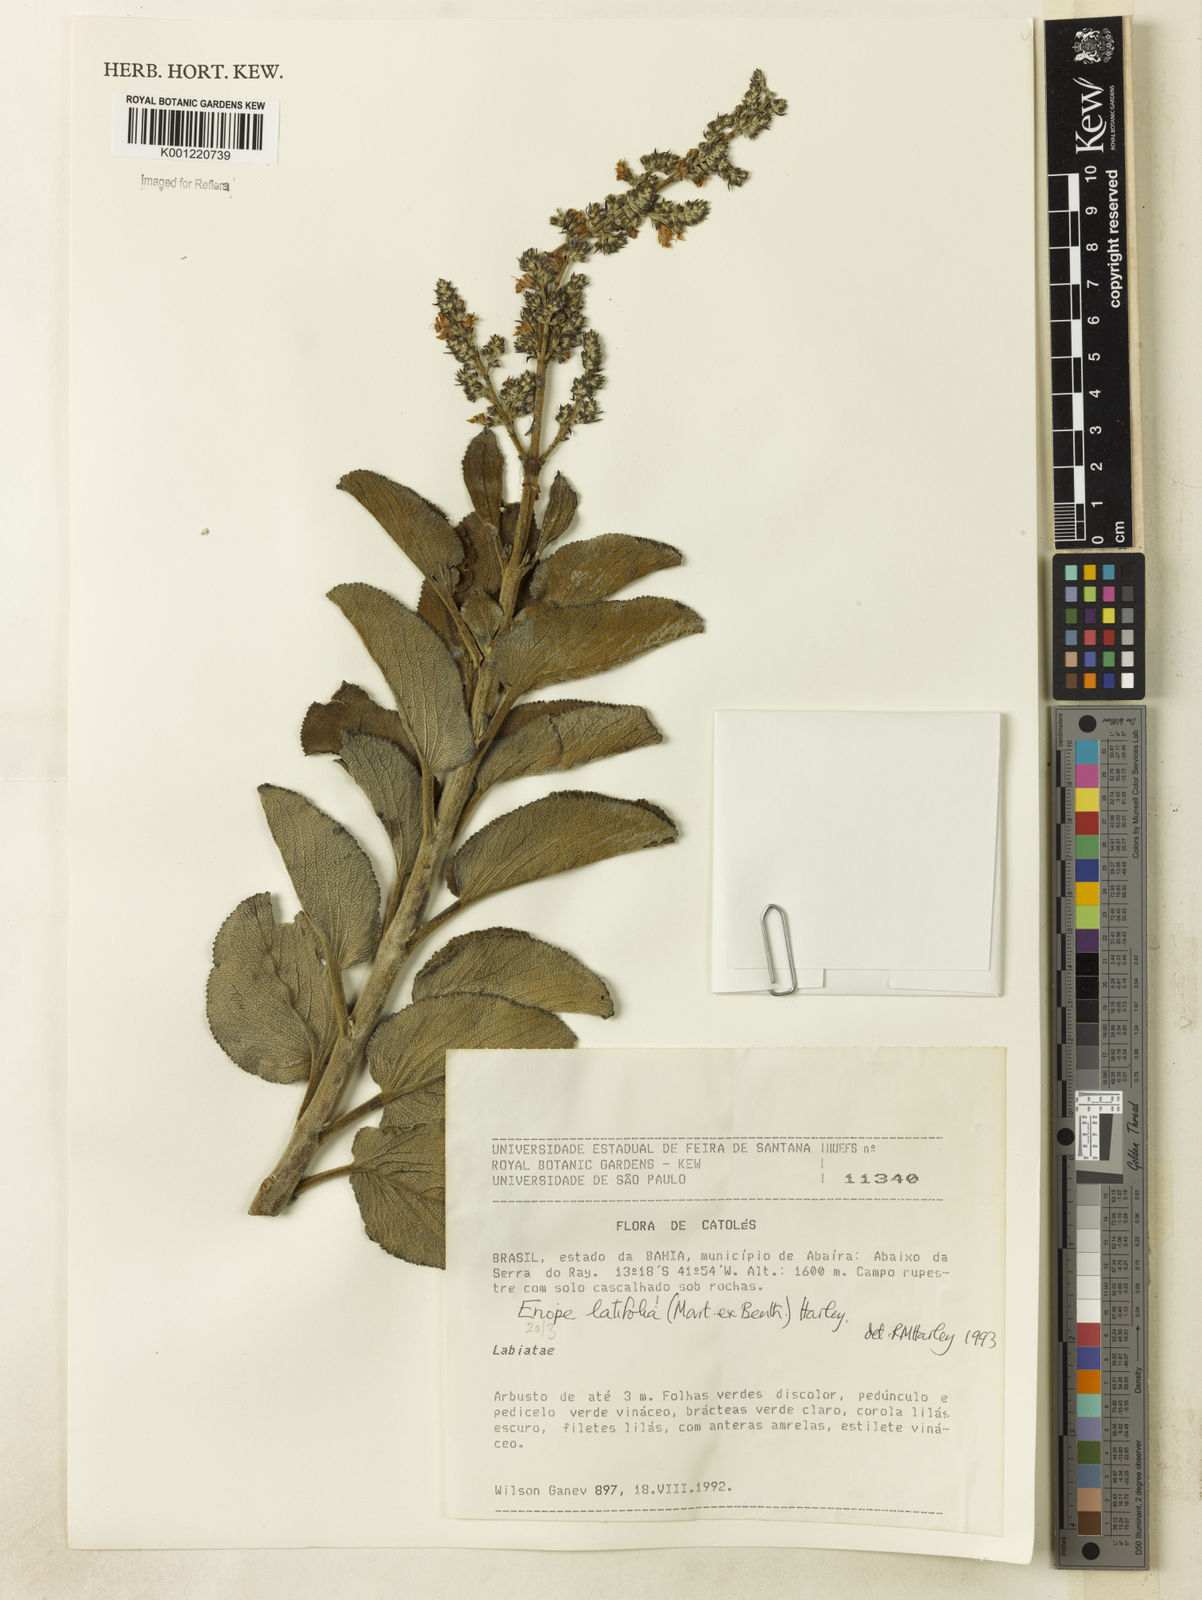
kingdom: Plantae
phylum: Tracheophyta
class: Magnoliopsida
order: Lamiales
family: Lamiaceae
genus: Eriope
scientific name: Eriope latifolia
